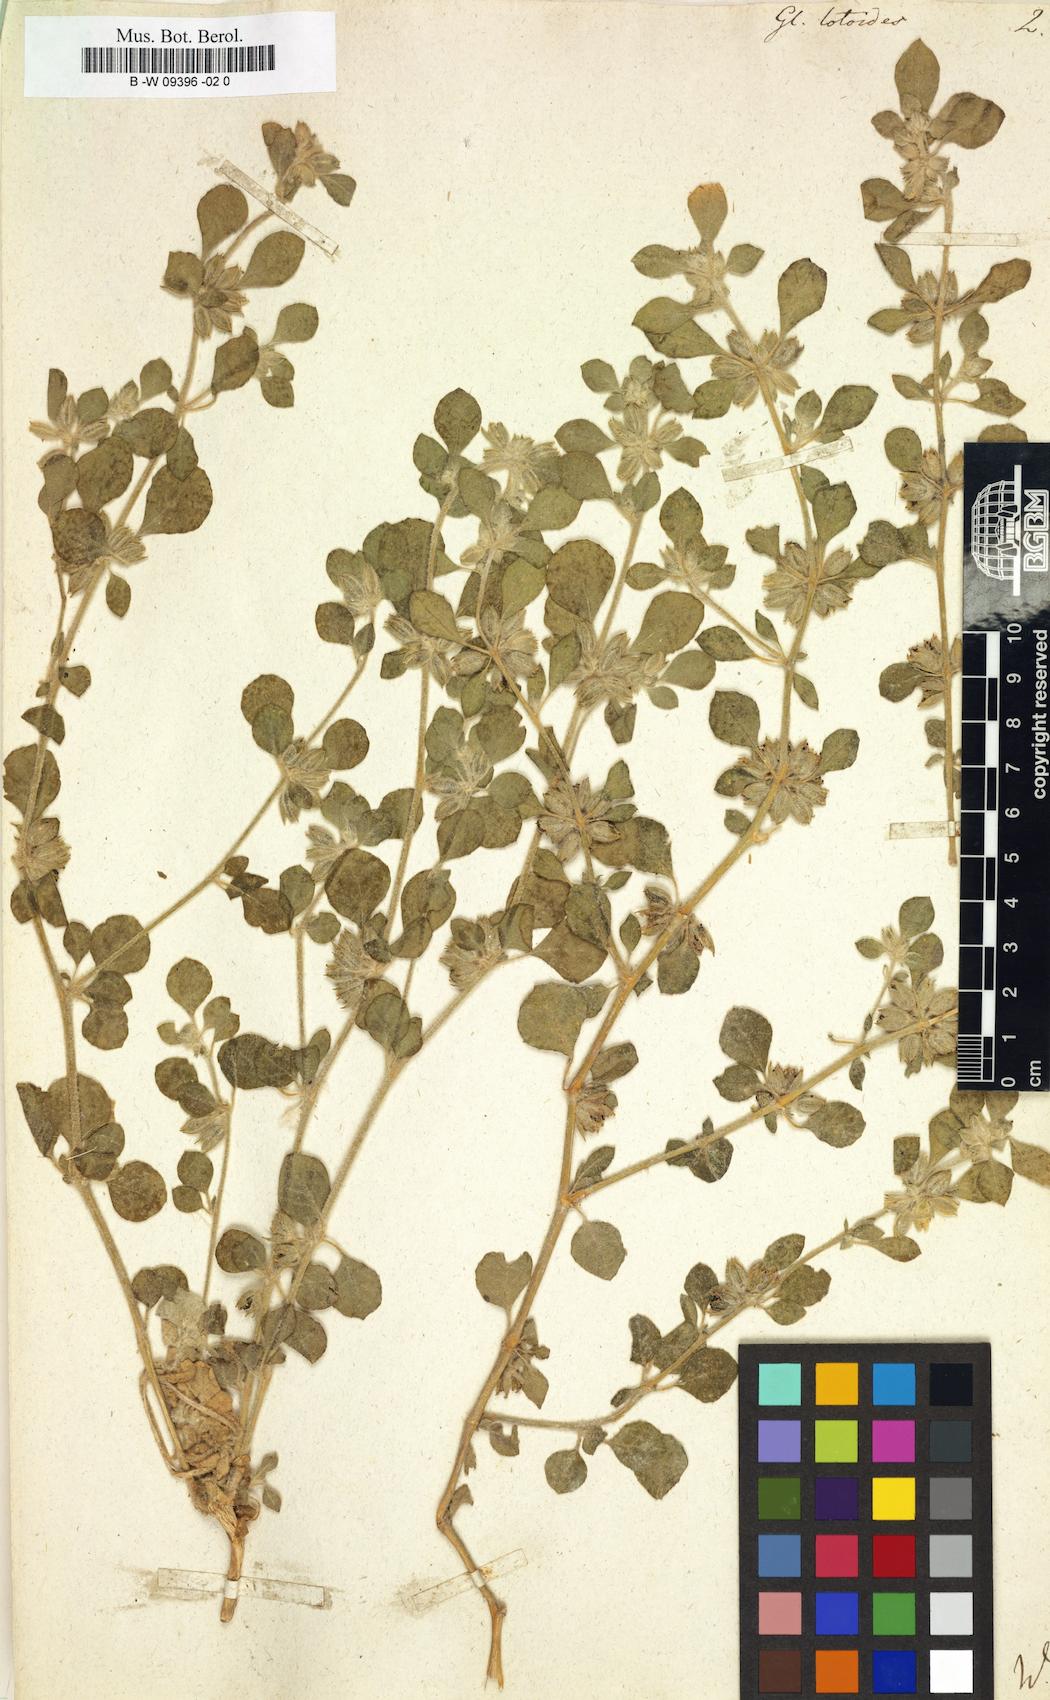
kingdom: Plantae
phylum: Tracheophyta
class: Magnoliopsida
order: Caryophyllales
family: Molluginaceae
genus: Glinus
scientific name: Glinus lotoides
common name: Lotus sweetjuice
